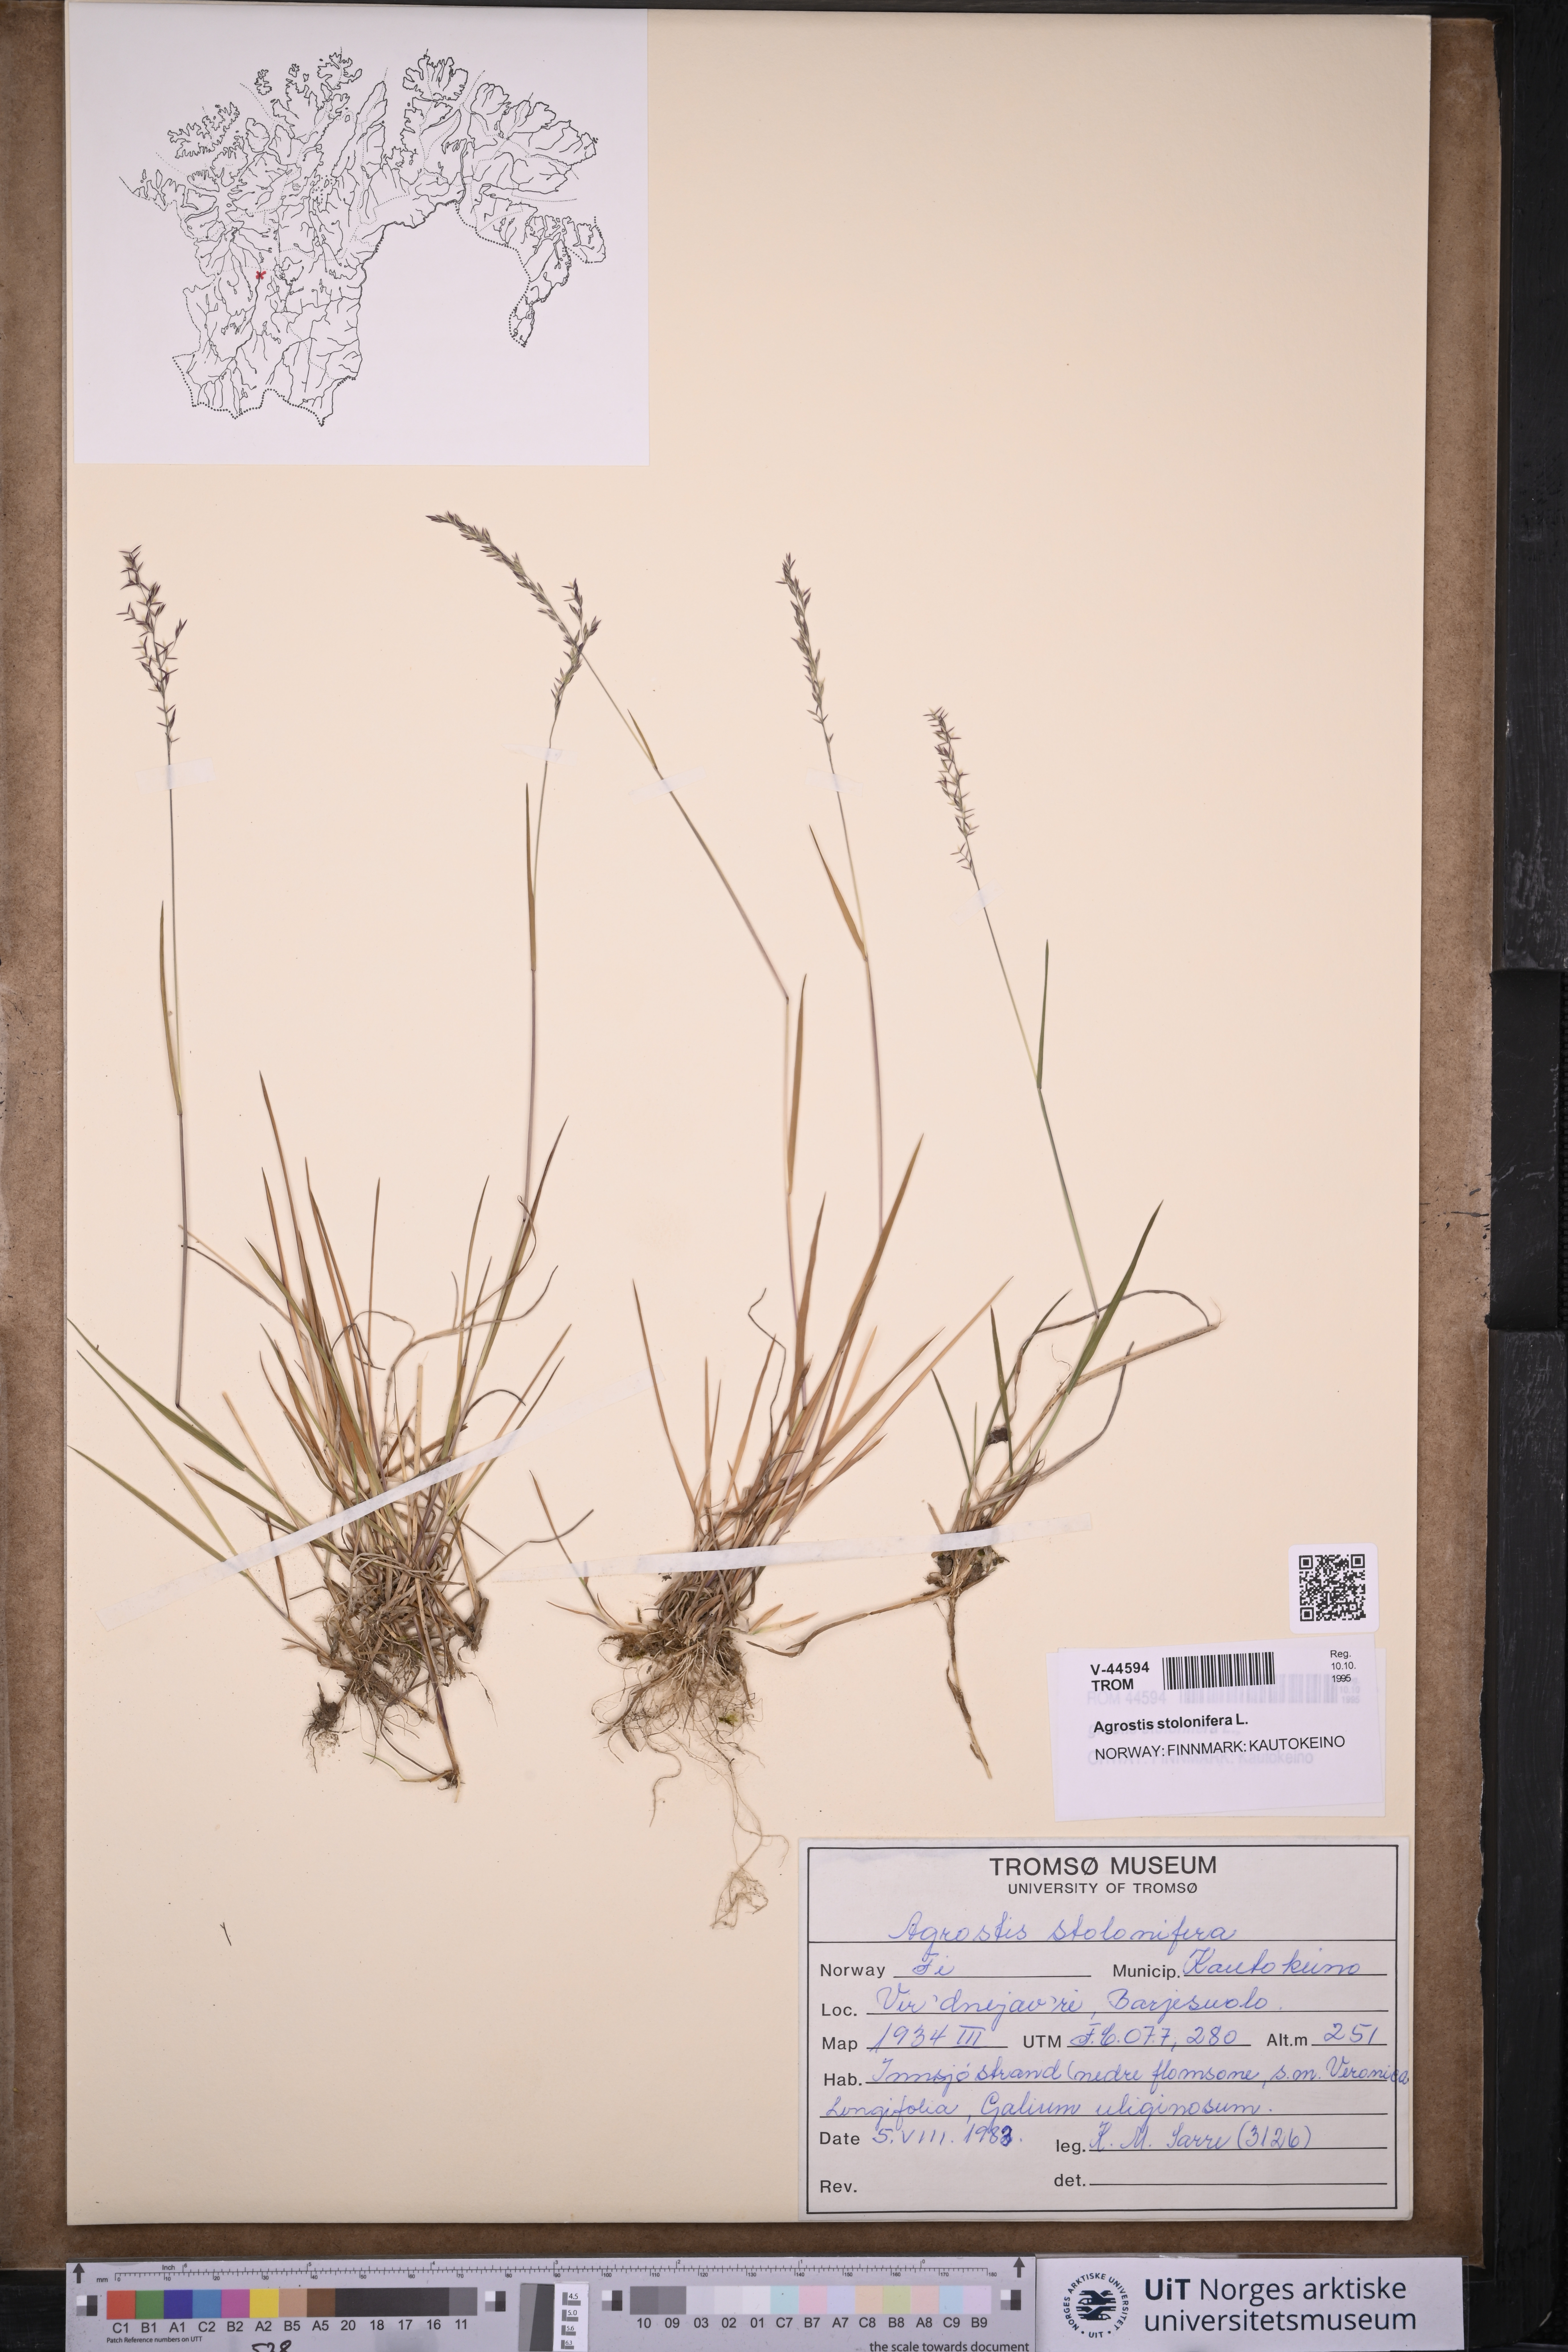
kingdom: Plantae
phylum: Tracheophyta
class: Liliopsida
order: Poales
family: Poaceae
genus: Agrostis
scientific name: Agrostis stolonifera
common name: Creeping bentgrass
